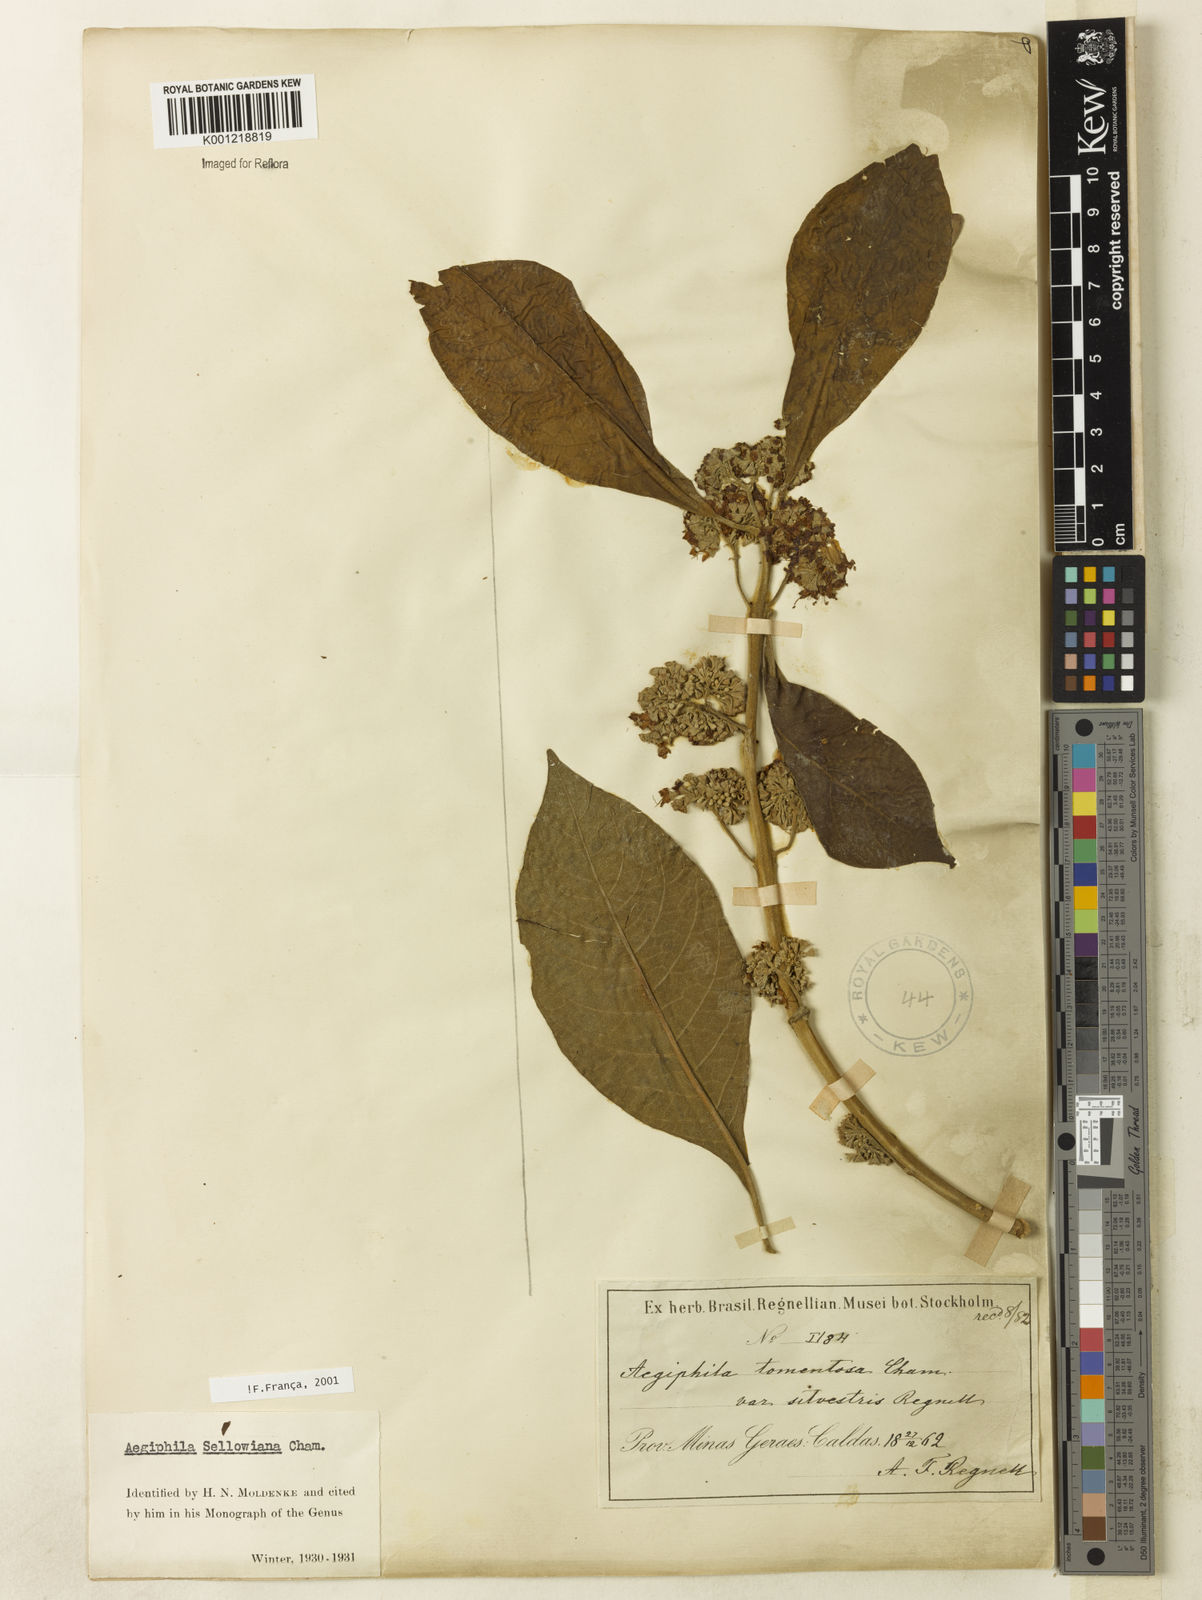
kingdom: Plantae
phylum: Tracheophyta
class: Magnoliopsida
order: Lamiales
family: Lamiaceae
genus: Aegiphila
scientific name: Aegiphila verticillata
